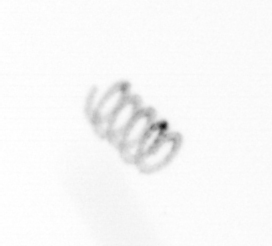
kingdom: Chromista
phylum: Ochrophyta
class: Bacillariophyceae
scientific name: Bacillariophyceae
